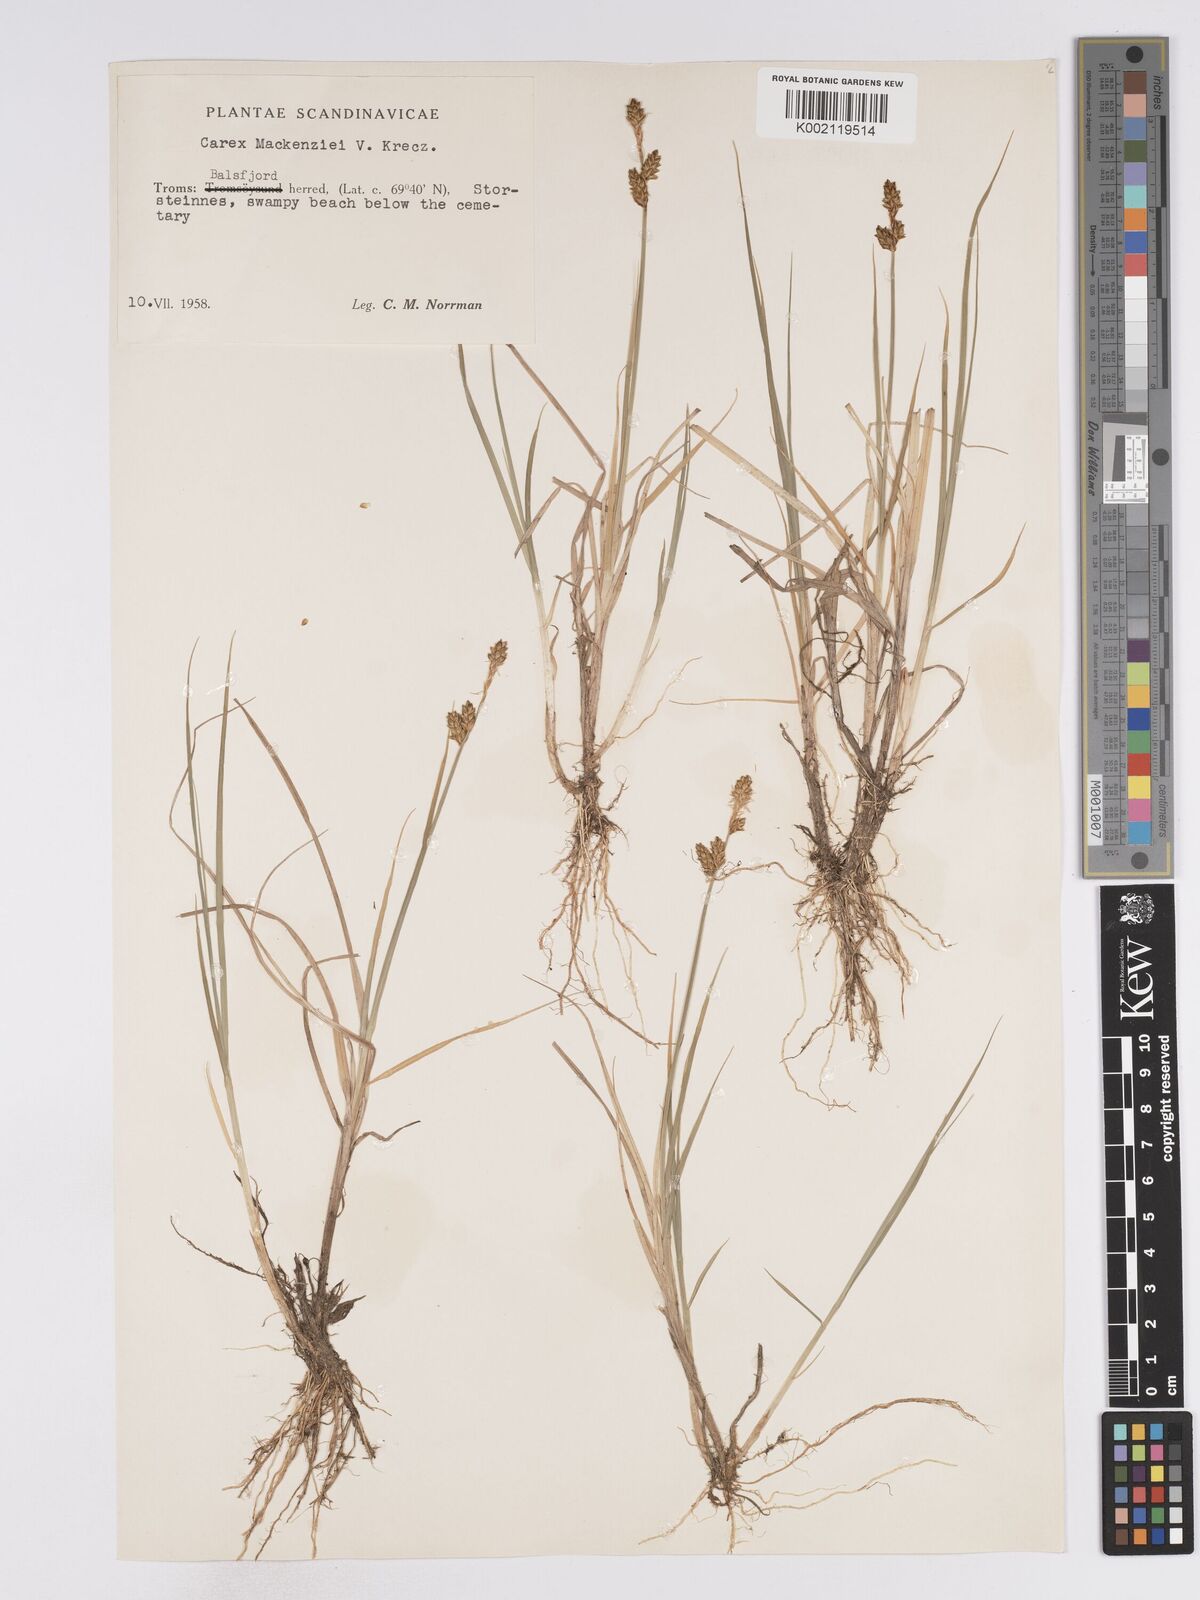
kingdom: Plantae
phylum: Tracheophyta
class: Liliopsida
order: Poales
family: Cyperaceae
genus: Carex
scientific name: Carex mackenziei
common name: Mackenzie's sedge
